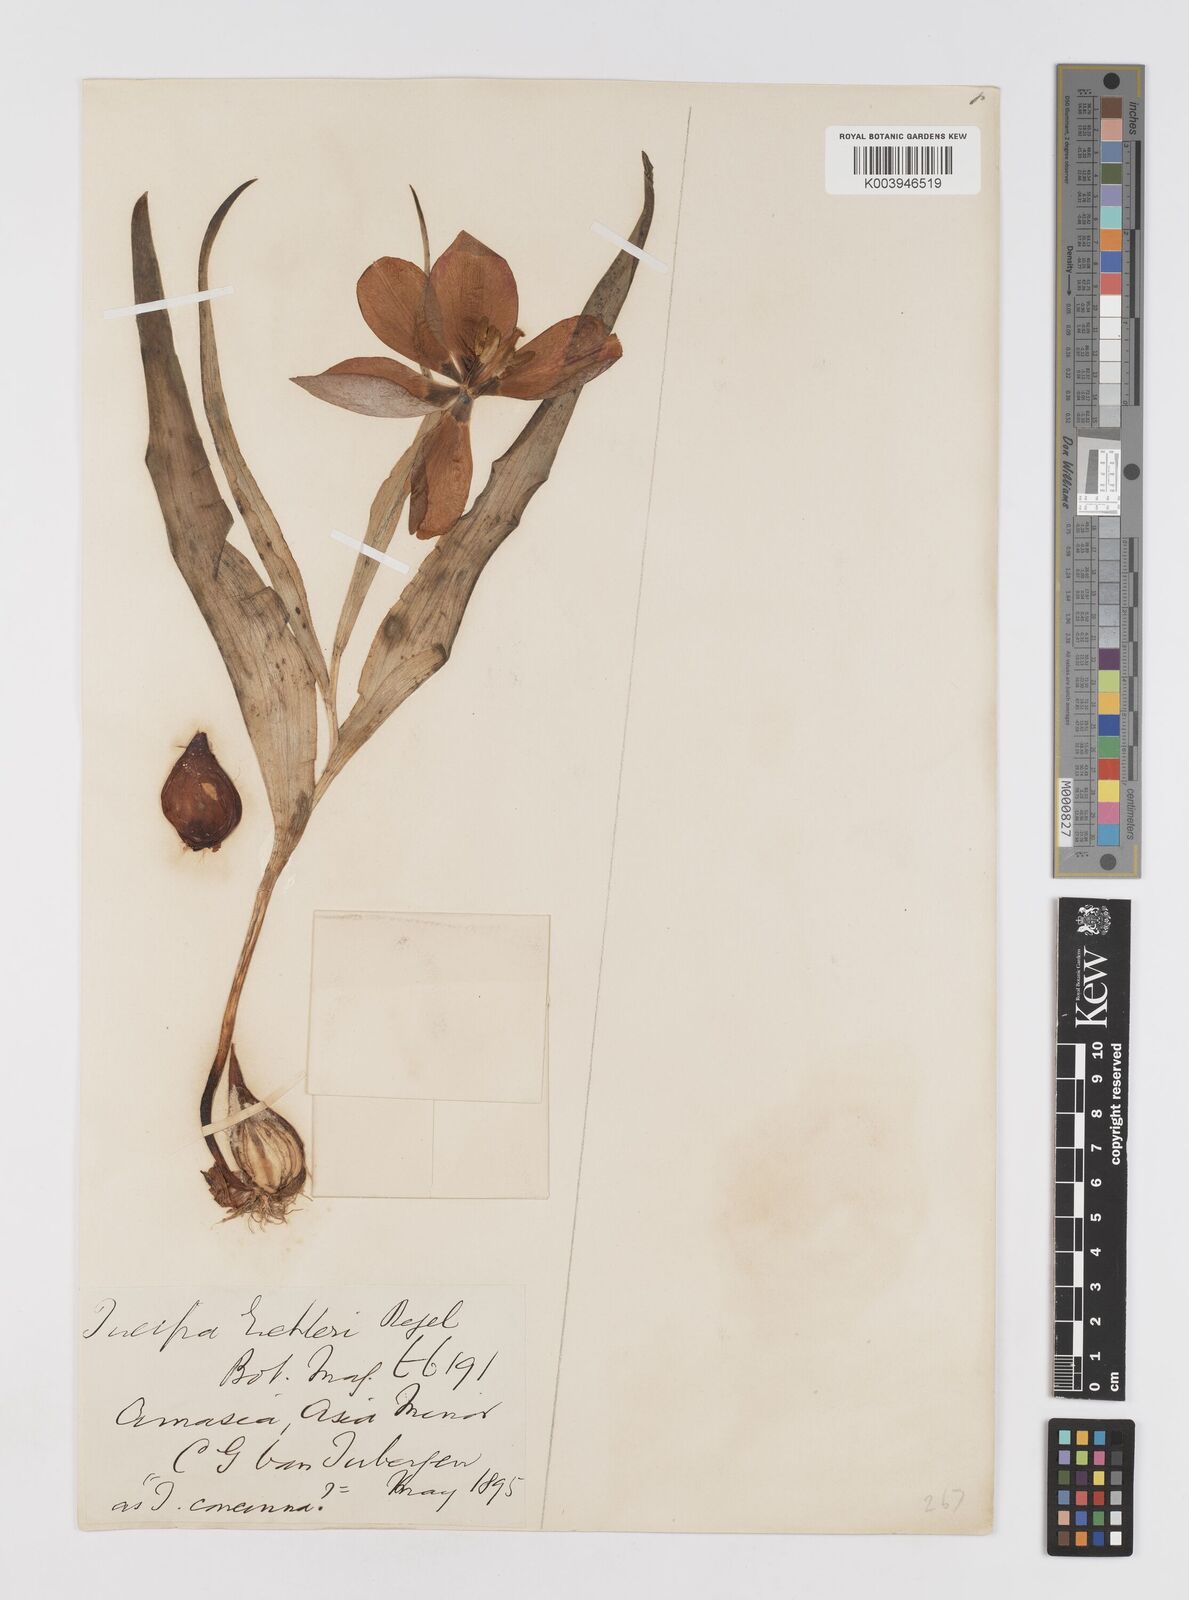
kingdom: Plantae
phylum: Tracheophyta
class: Liliopsida
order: Liliales
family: Liliaceae
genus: Tulipa
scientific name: Tulipa
